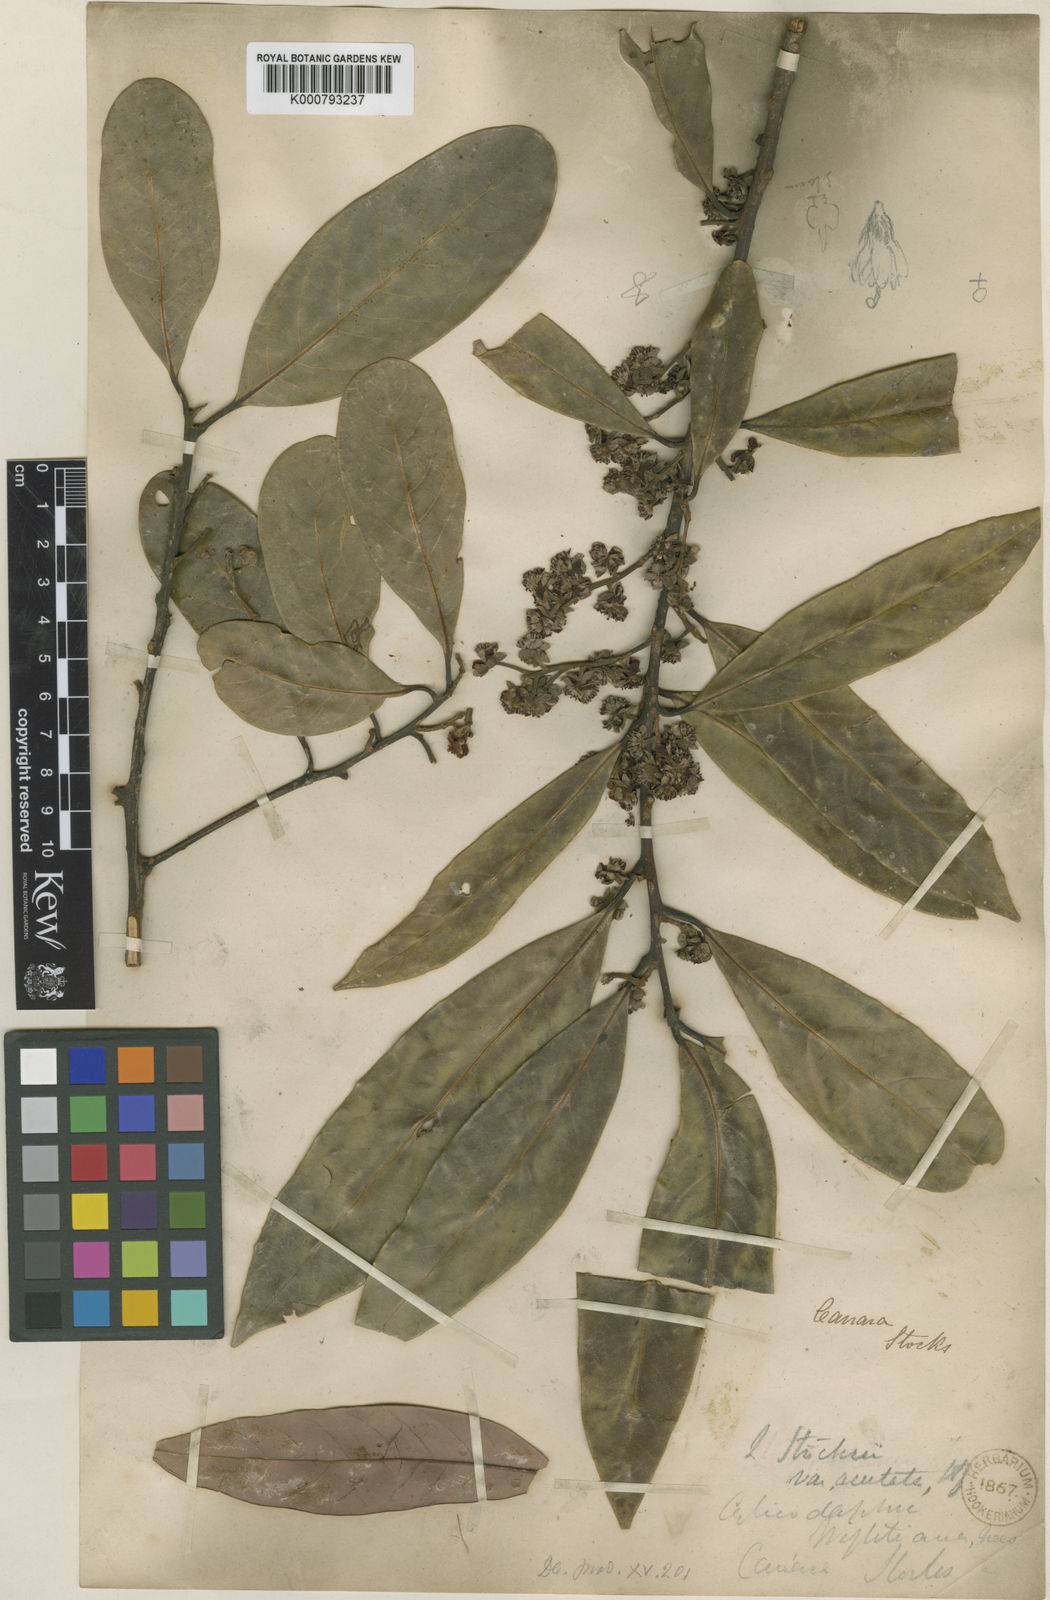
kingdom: Plantae
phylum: Tracheophyta
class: Magnoliopsida
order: Laurales
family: Lauraceae
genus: Litsea
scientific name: Litsea stocksii
